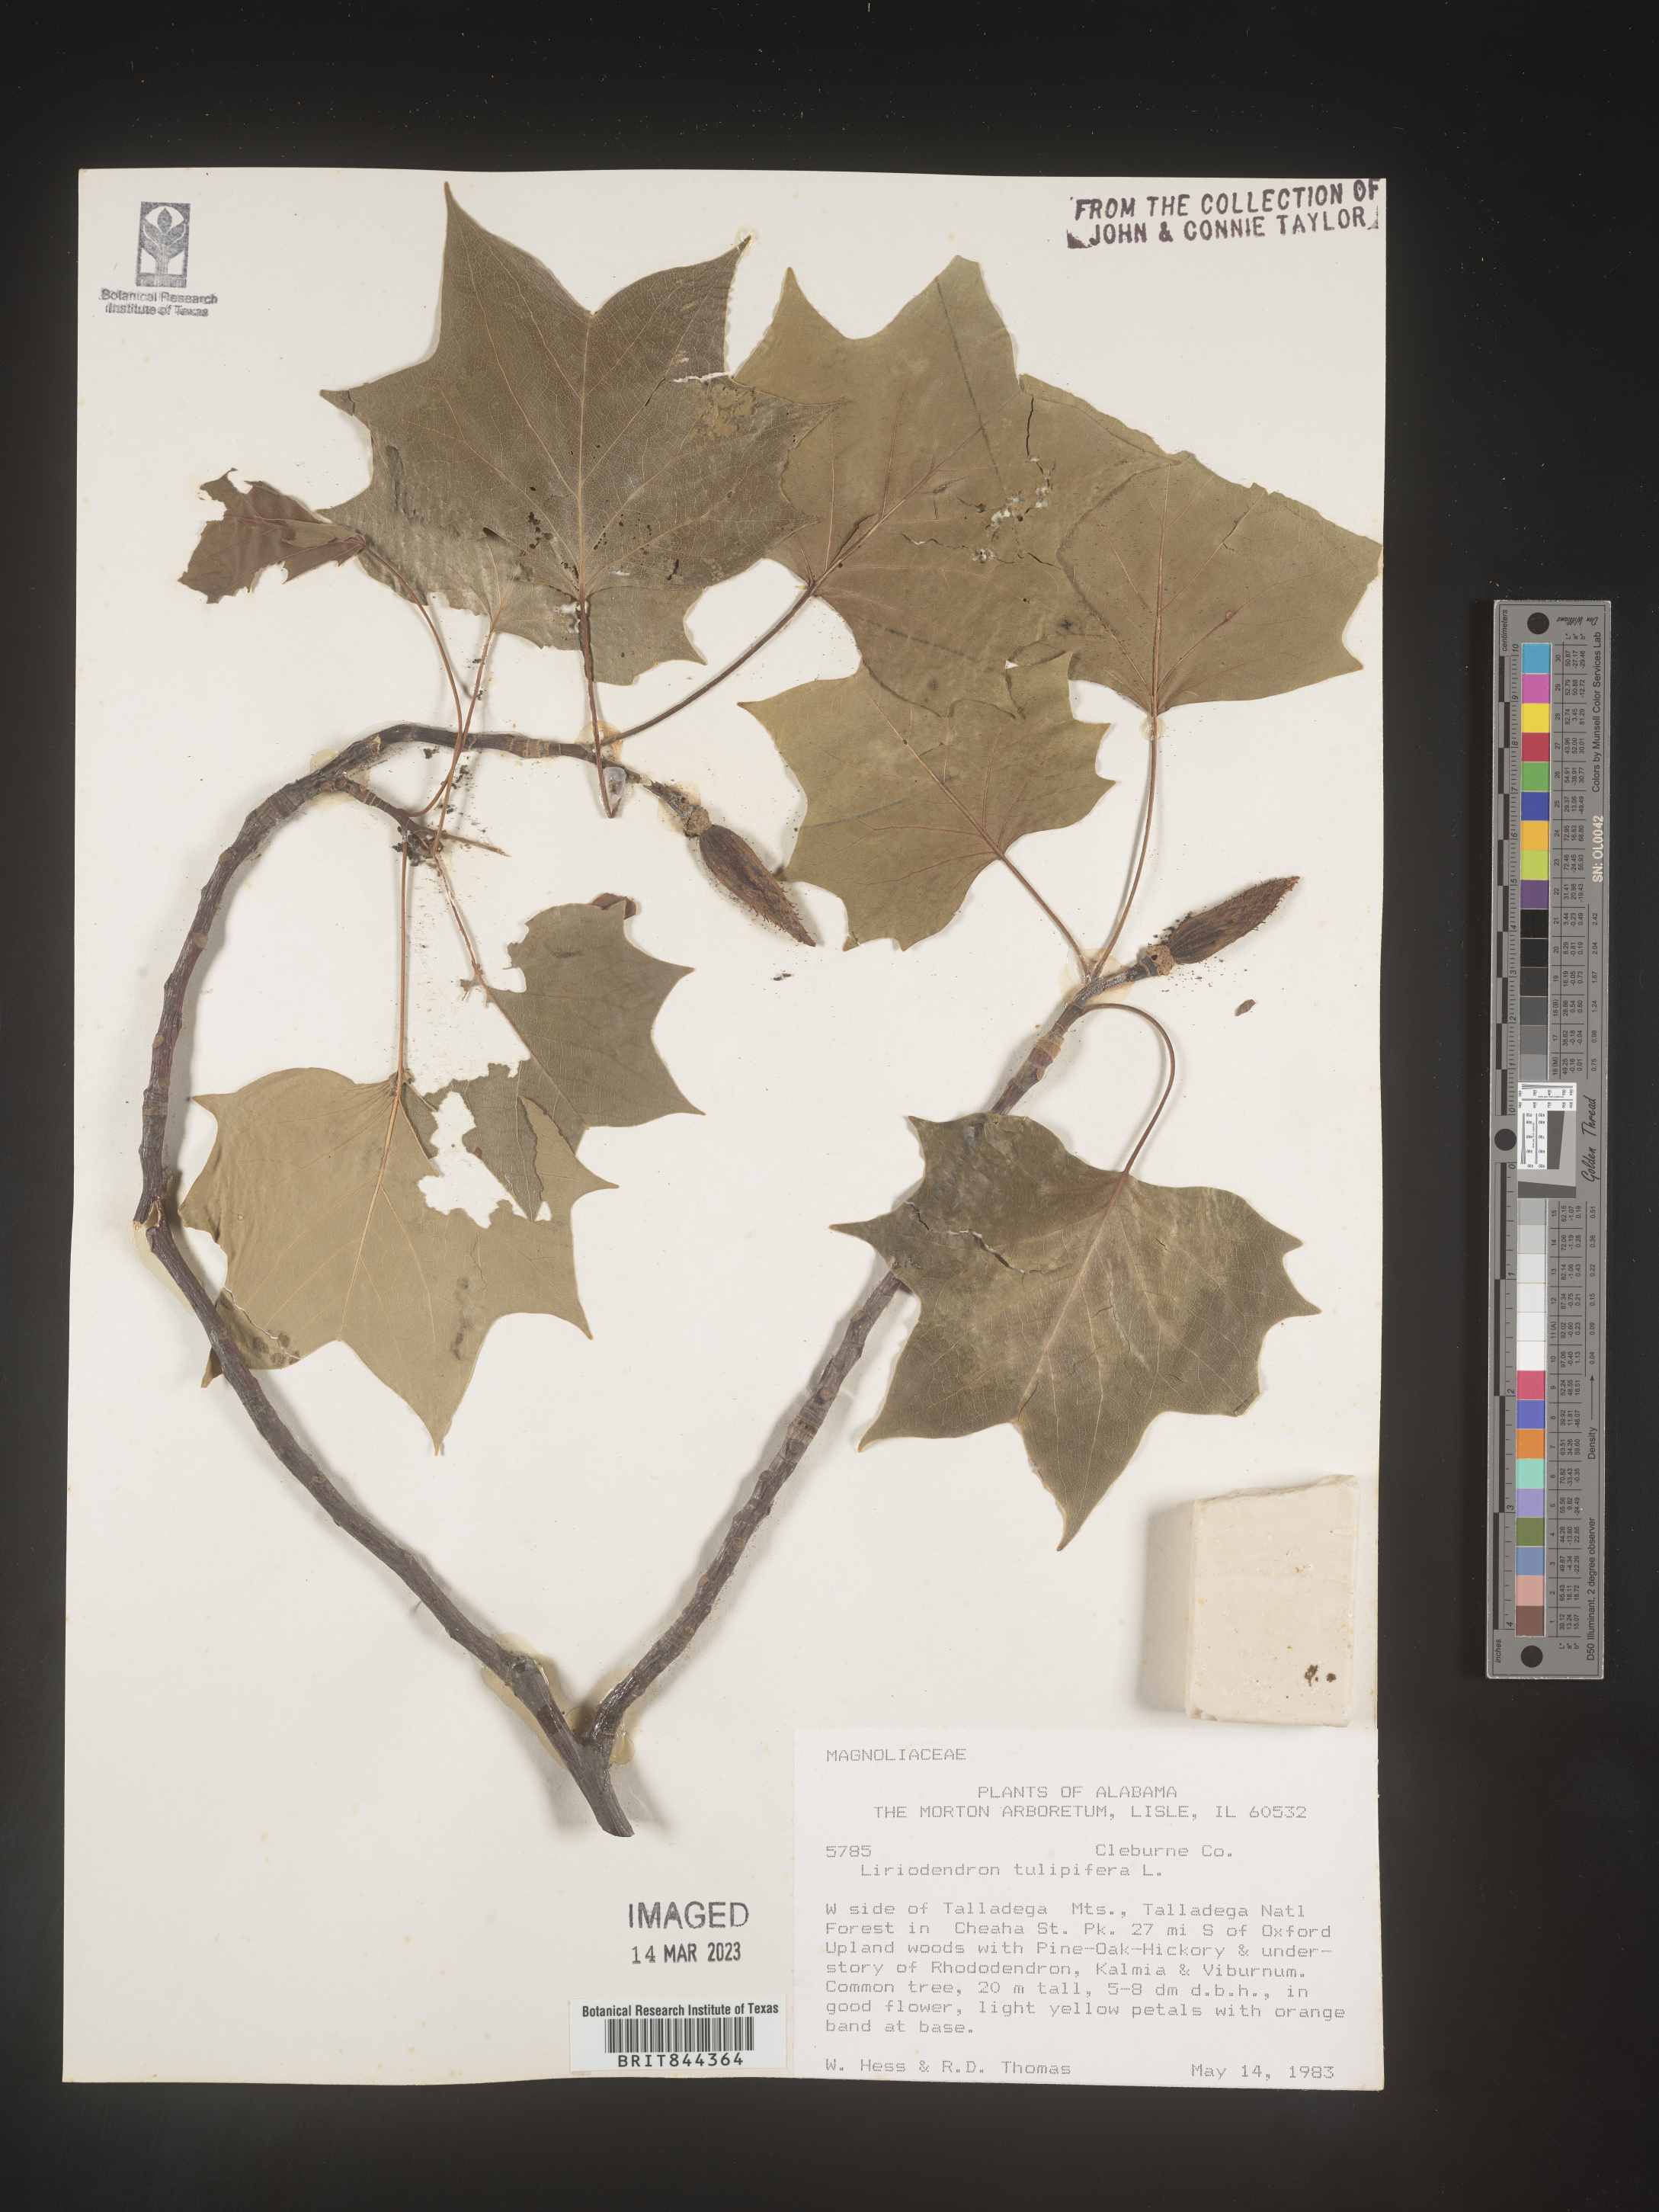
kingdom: Plantae
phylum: Tracheophyta
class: Magnoliopsida
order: Magnoliales
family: Magnoliaceae
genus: Liriodendron
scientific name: Liriodendron tulipifera
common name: Tulip tree
